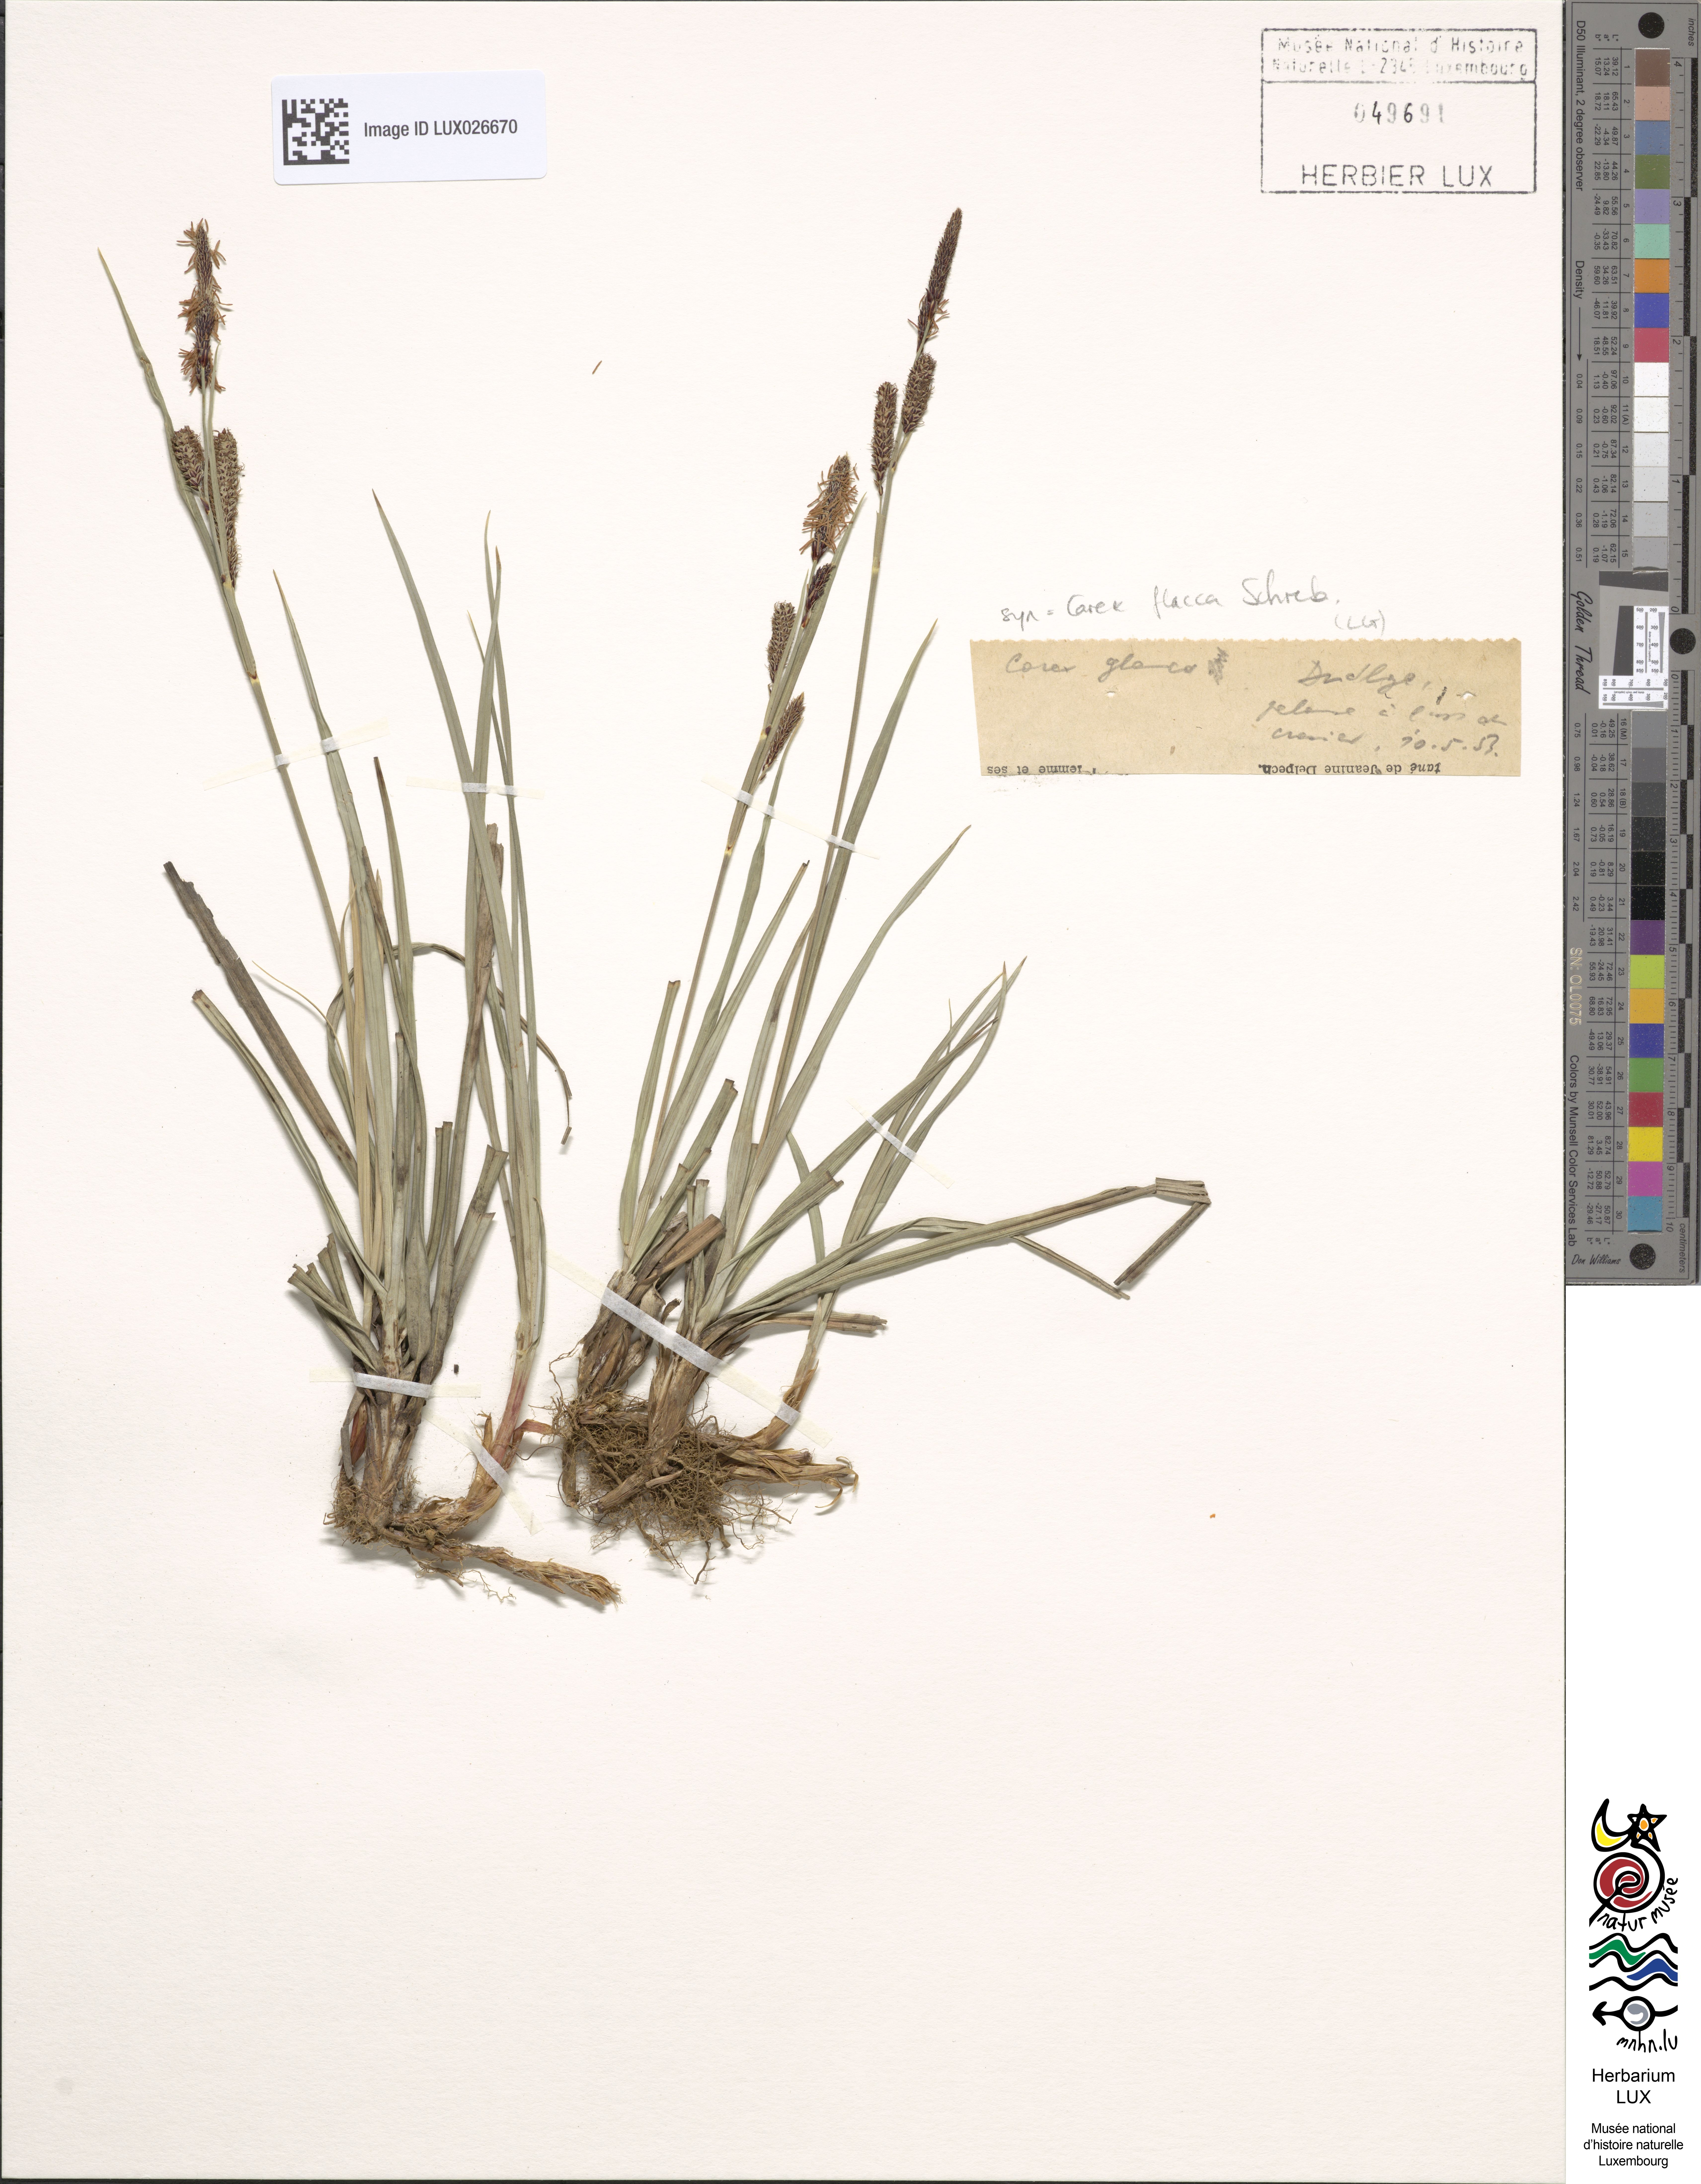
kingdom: Plantae
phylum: Tracheophyta
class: Liliopsida
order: Poales
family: Cyperaceae
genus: Carex
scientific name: Carex flacca
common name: Glaucous sedge
